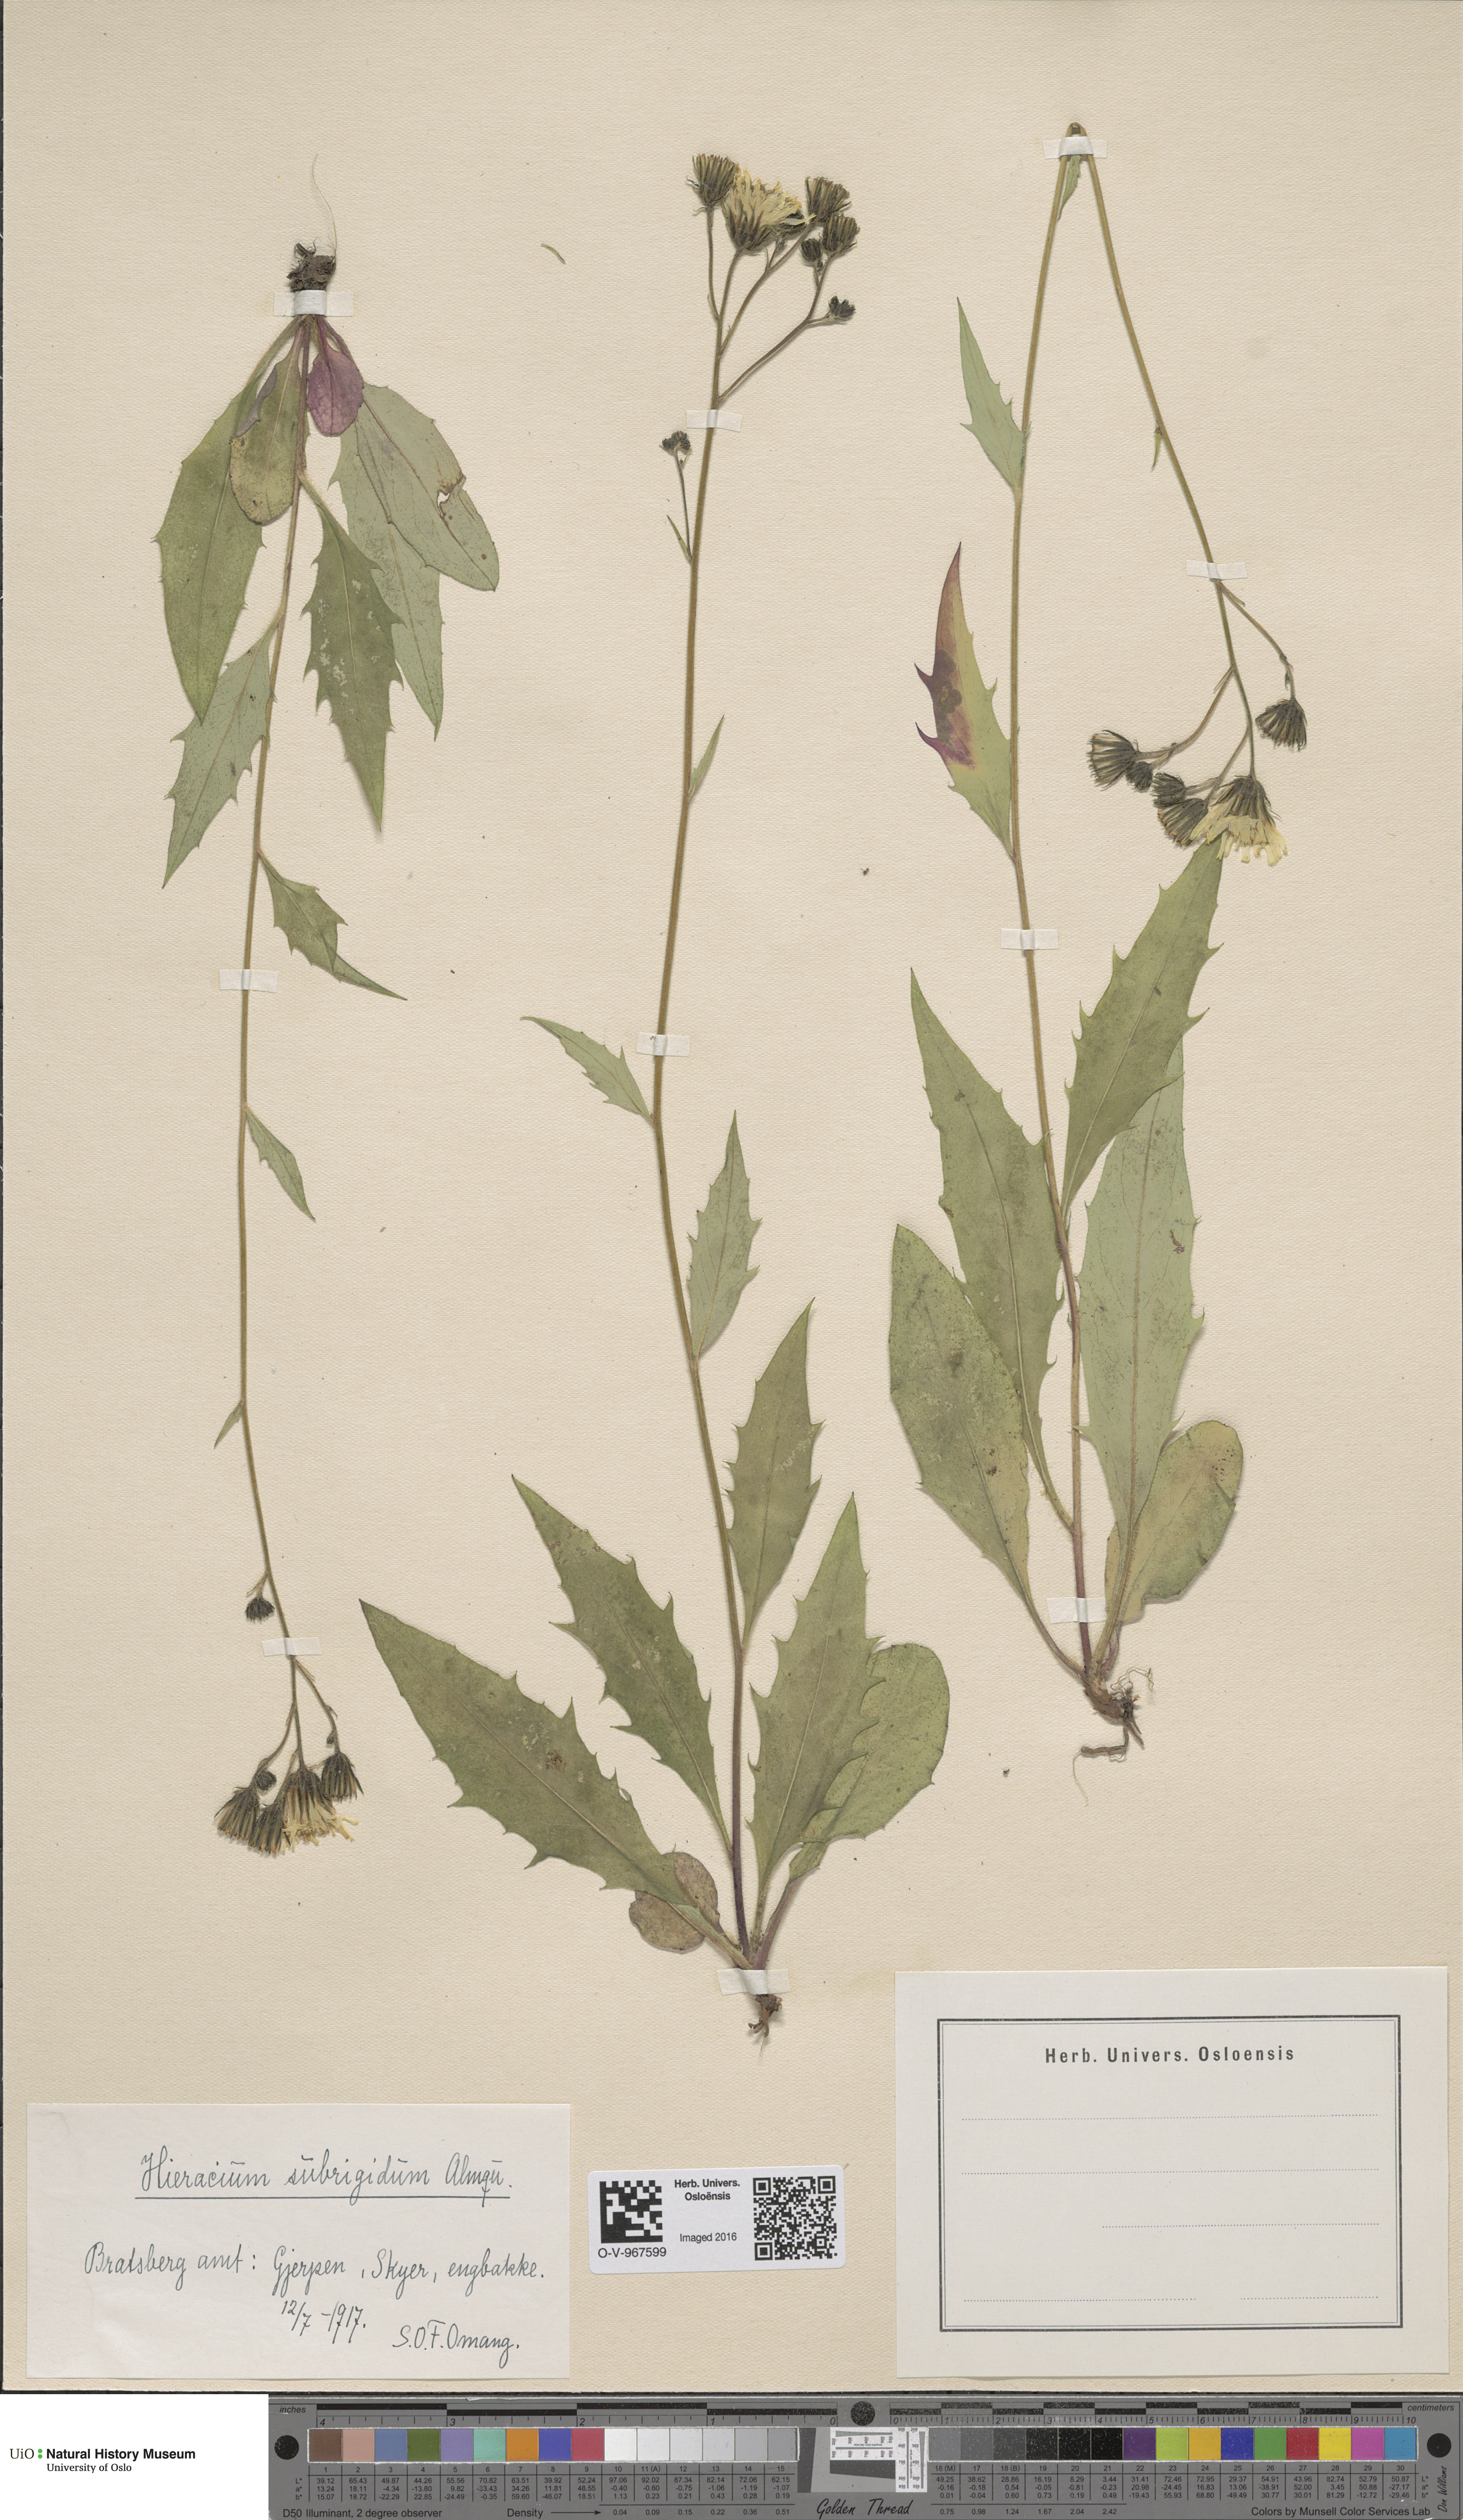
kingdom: Plantae
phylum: Tracheophyta
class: Magnoliopsida
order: Asterales
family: Asteraceae
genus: Hieracium
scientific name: Hieracium subrigidum
